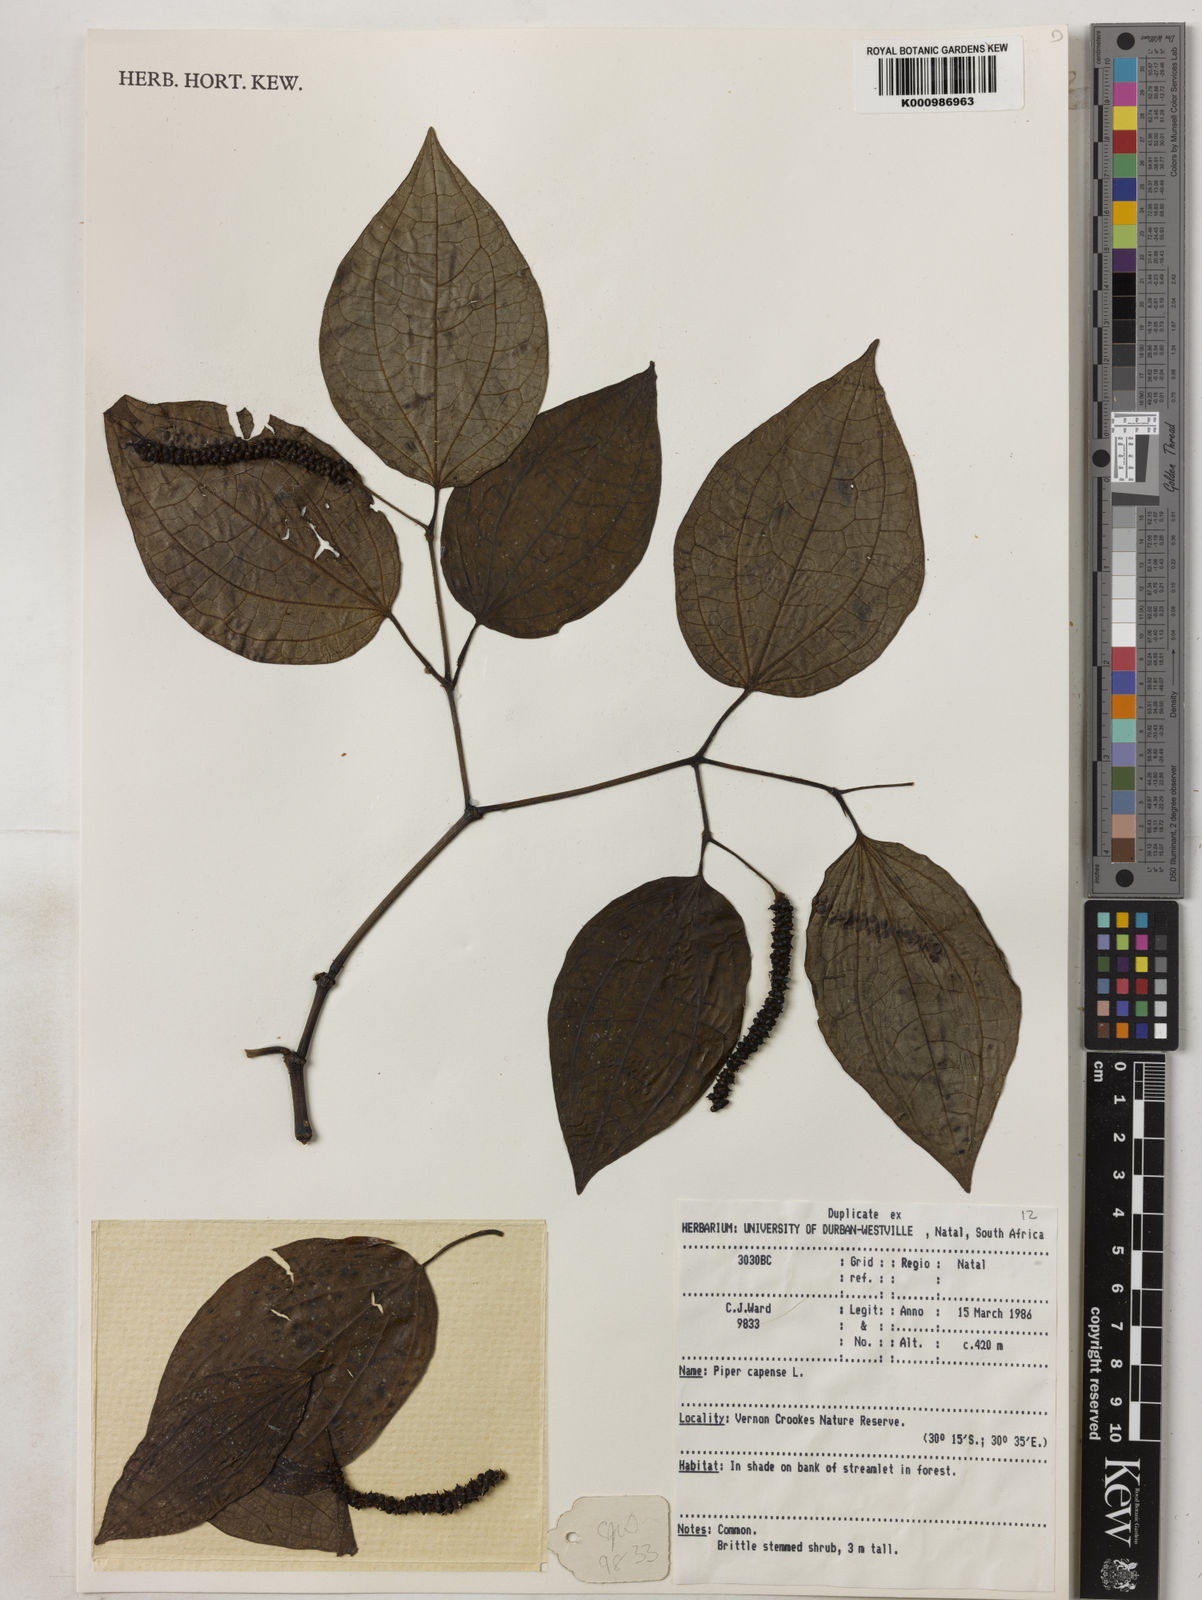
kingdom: Plantae
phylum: Tracheophyta
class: Magnoliopsida
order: Piperales
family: Piperaceae
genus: Piper
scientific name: Piper capense
